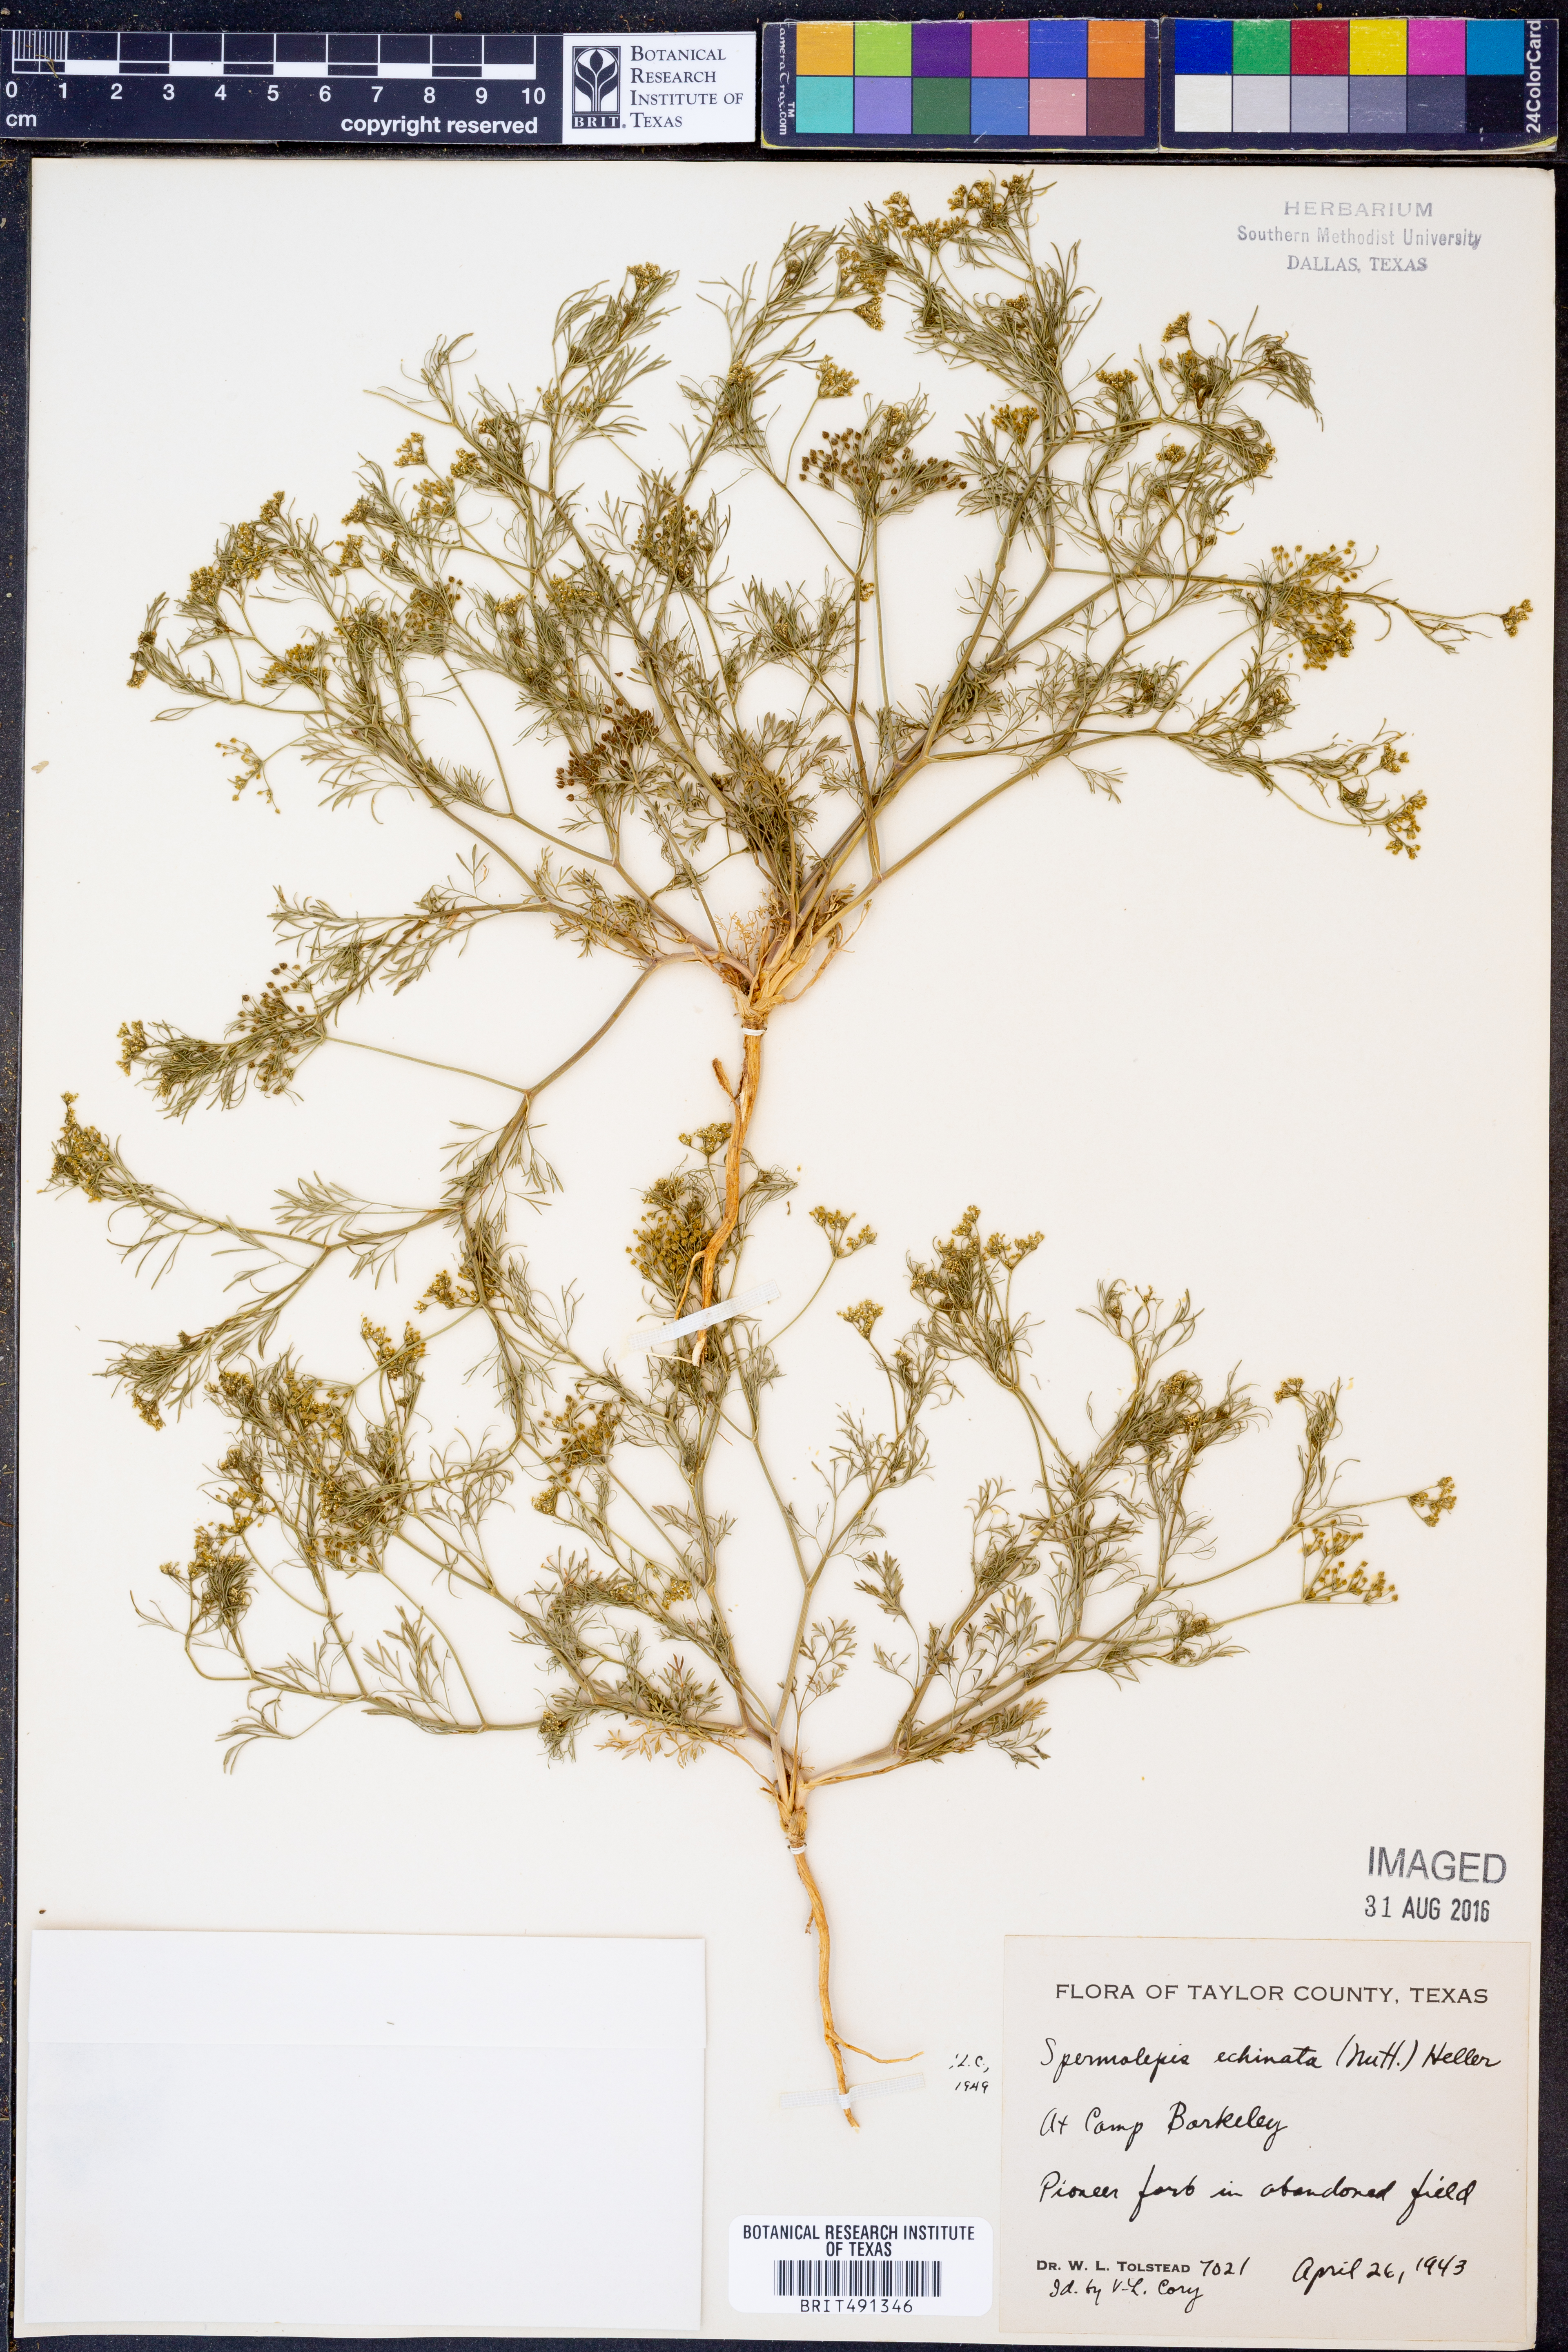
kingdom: Plantae
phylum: Tracheophyta
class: Magnoliopsida
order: Apiales
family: Apiaceae
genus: Spermolepis
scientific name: Spermolepis echinata
